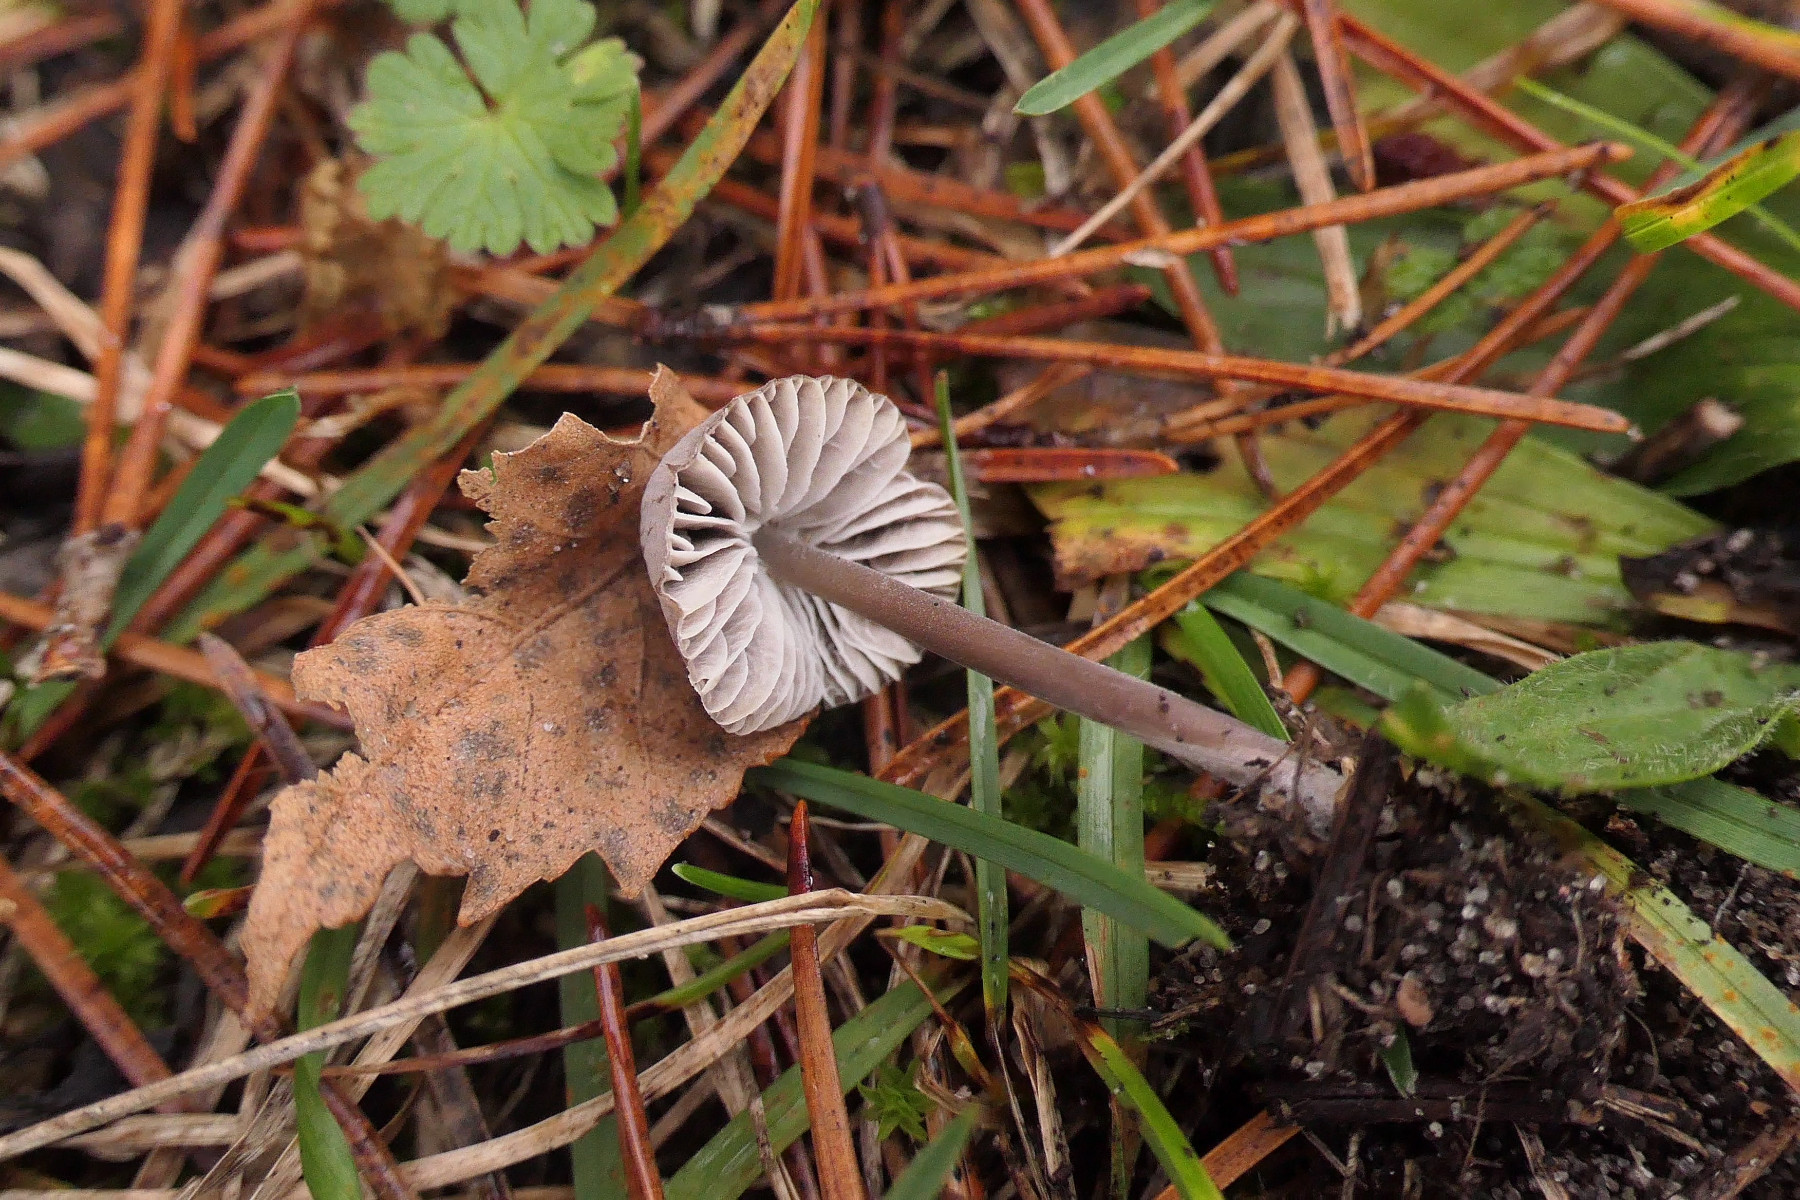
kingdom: Fungi
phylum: Basidiomycota
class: Agaricomycetes
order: Agaricales
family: Mycenaceae
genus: Mycena
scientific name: Mycena aetites
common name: plæne-huesvamp
